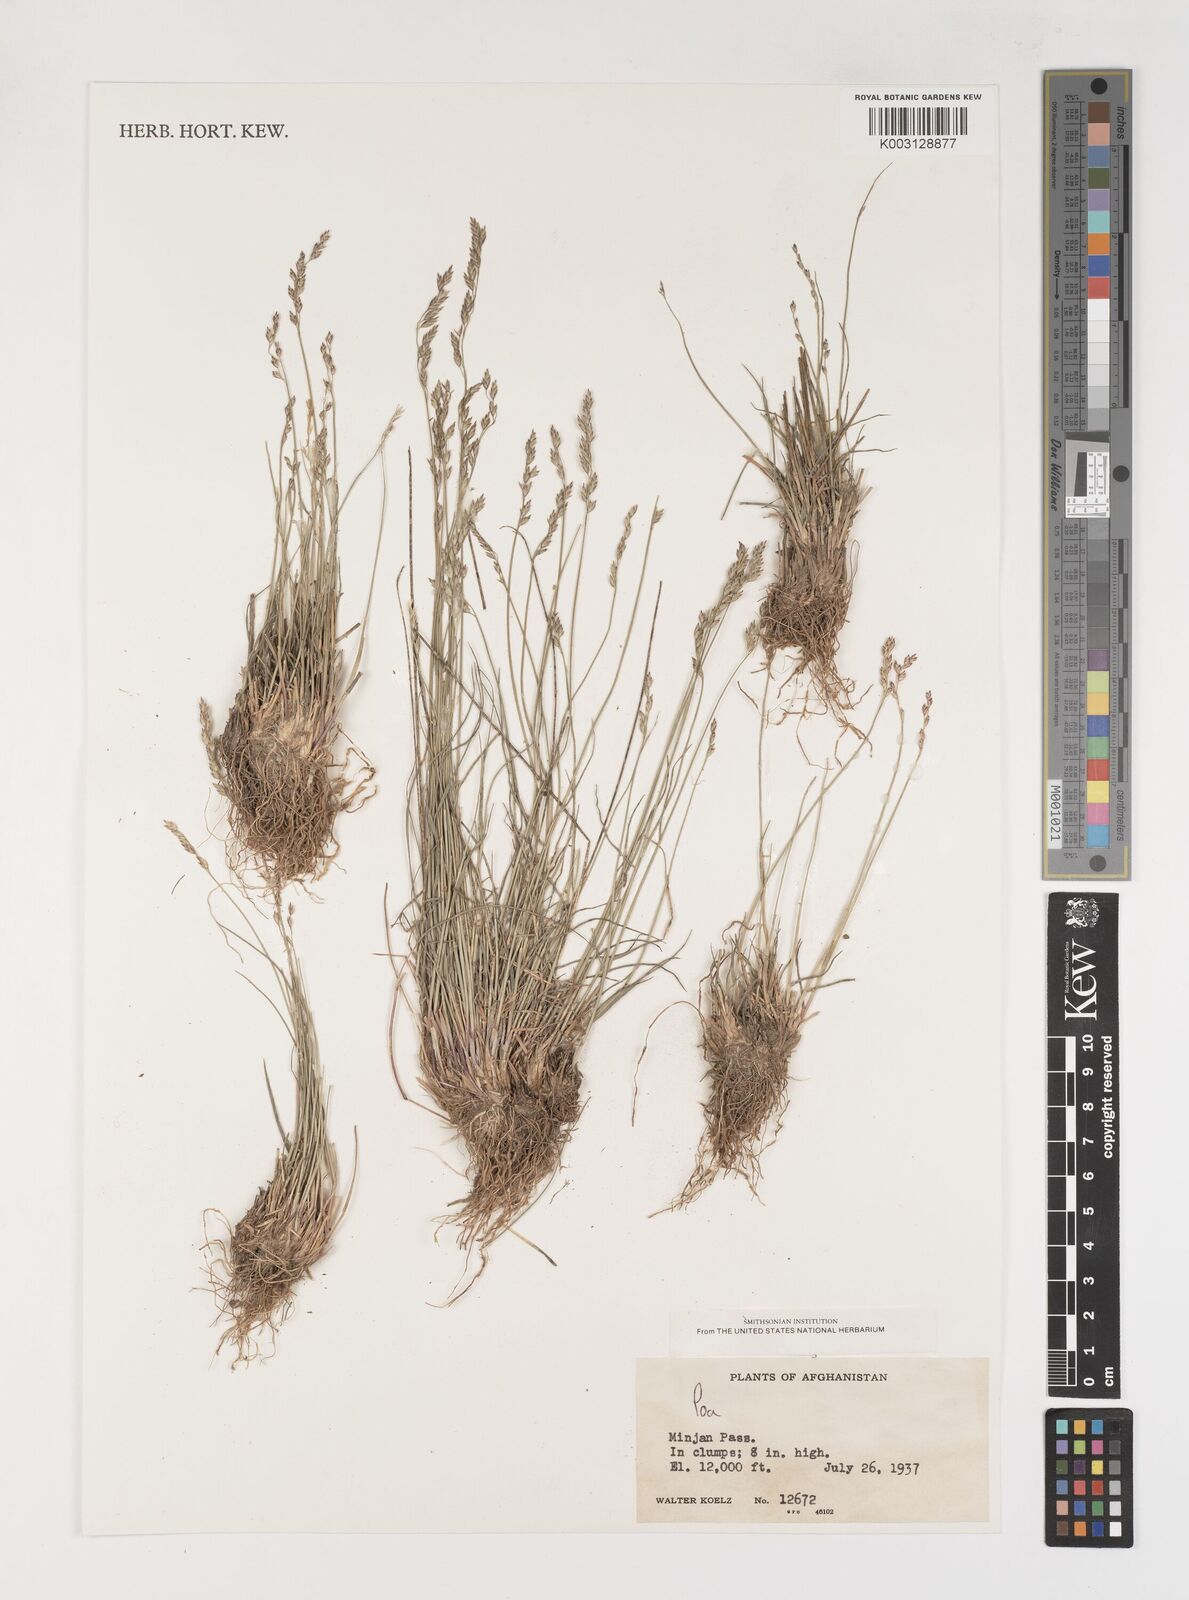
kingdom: Plantae
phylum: Tracheophyta
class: Liliopsida
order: Poales
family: Poaceae
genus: Poa
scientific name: Poa
